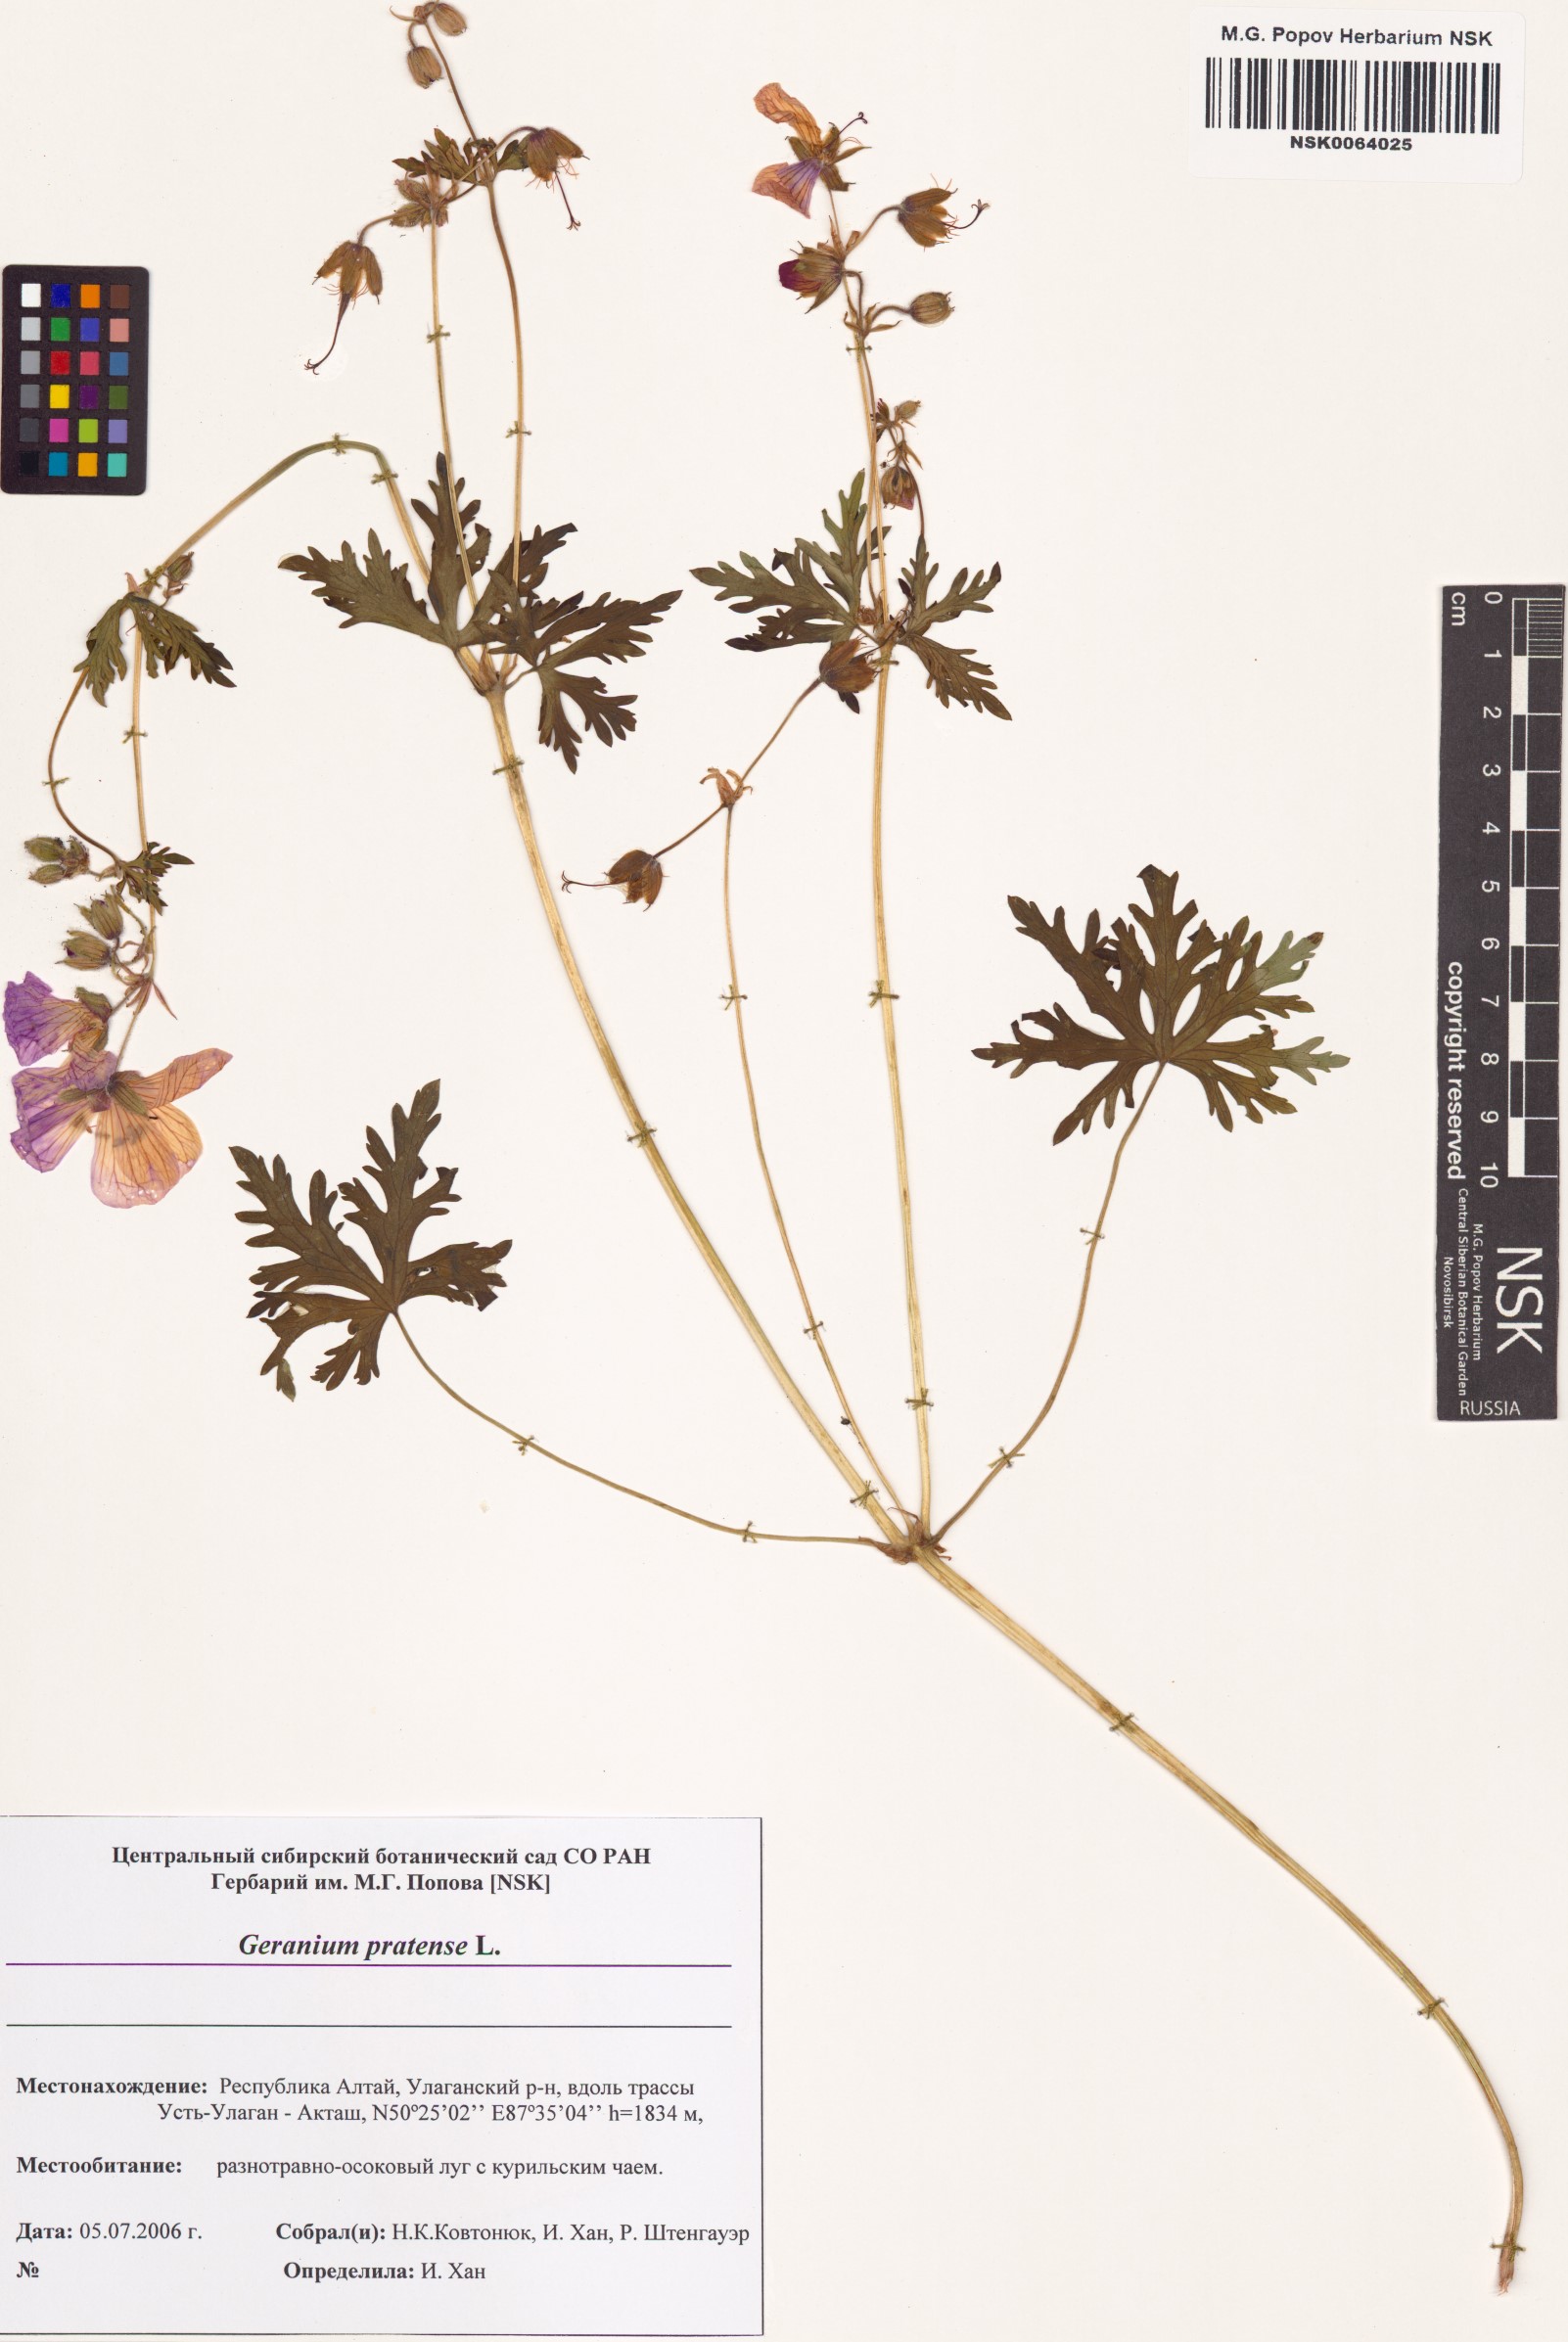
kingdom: Plantae
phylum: Tracheophyta
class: Magnoliopsida
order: Geraniales
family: Geraniaceae
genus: Geranium
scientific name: Geranium pratense
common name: Meadow crane's-bill
